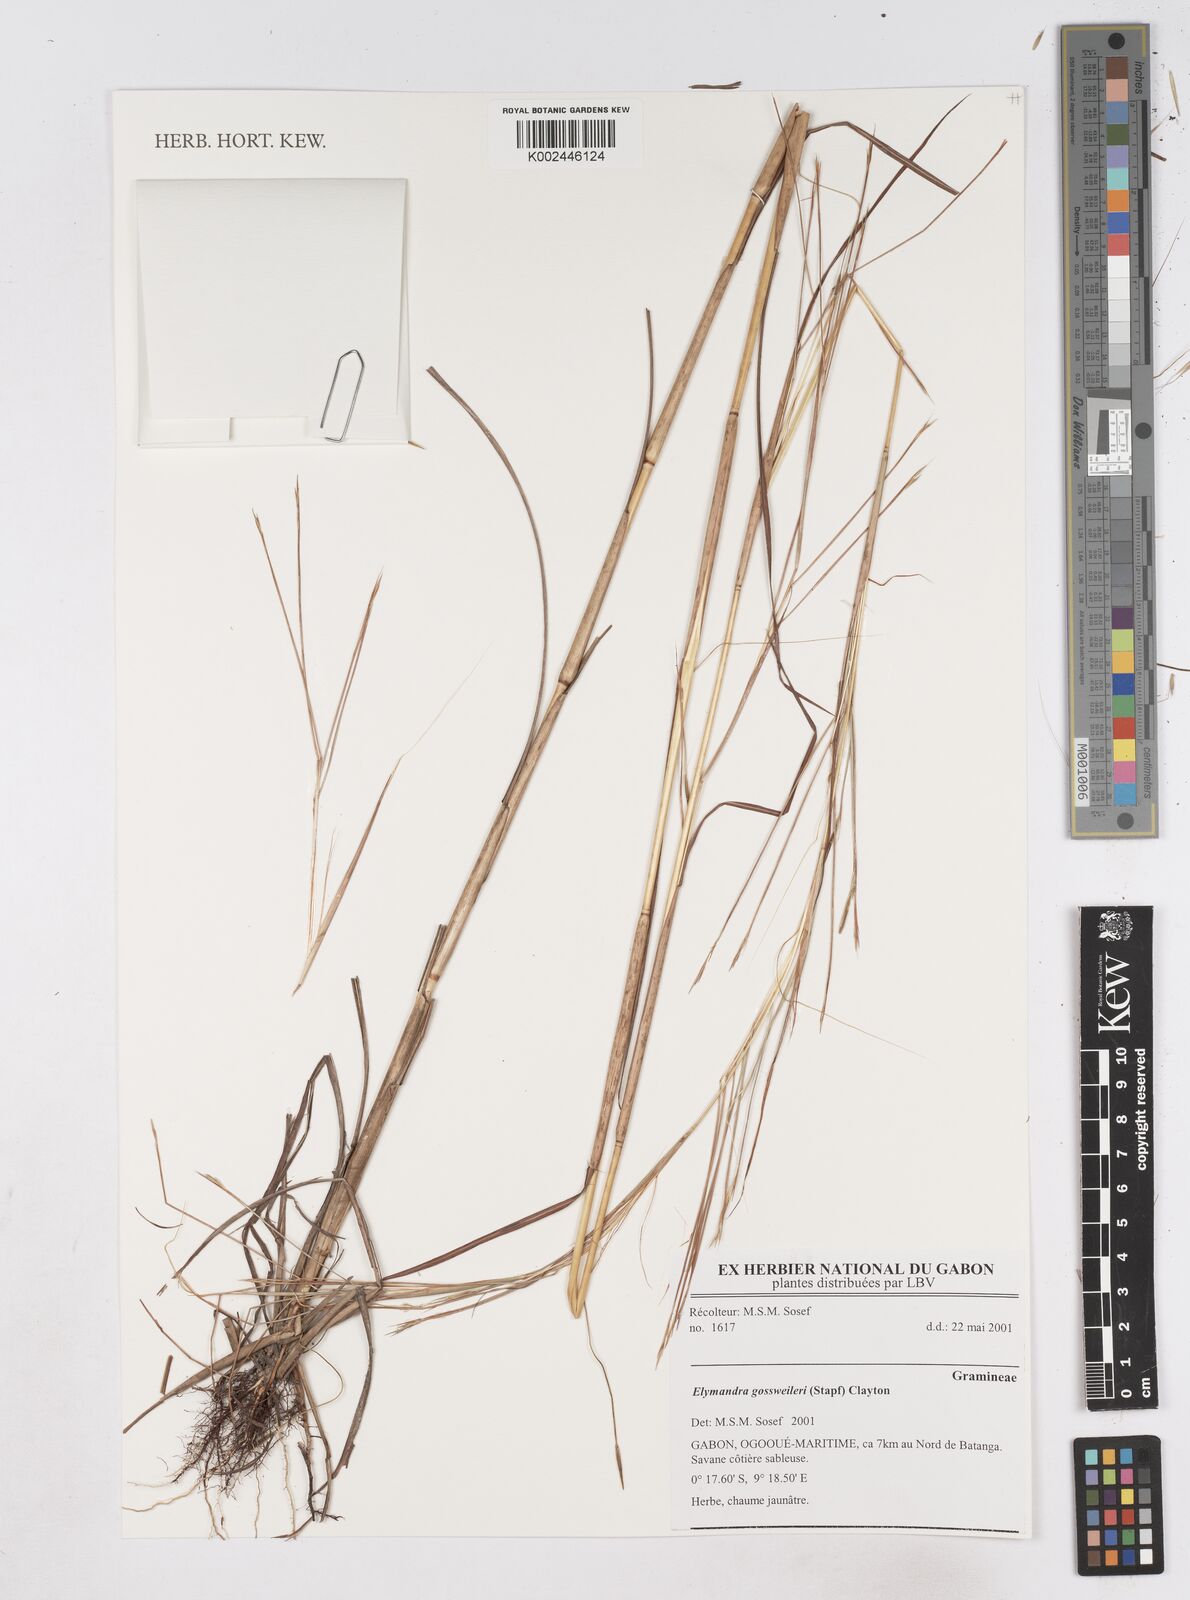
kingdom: Plantae
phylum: Tracheophyta
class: Liliopsida
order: Poales
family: Poaceae
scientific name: Poaceae
